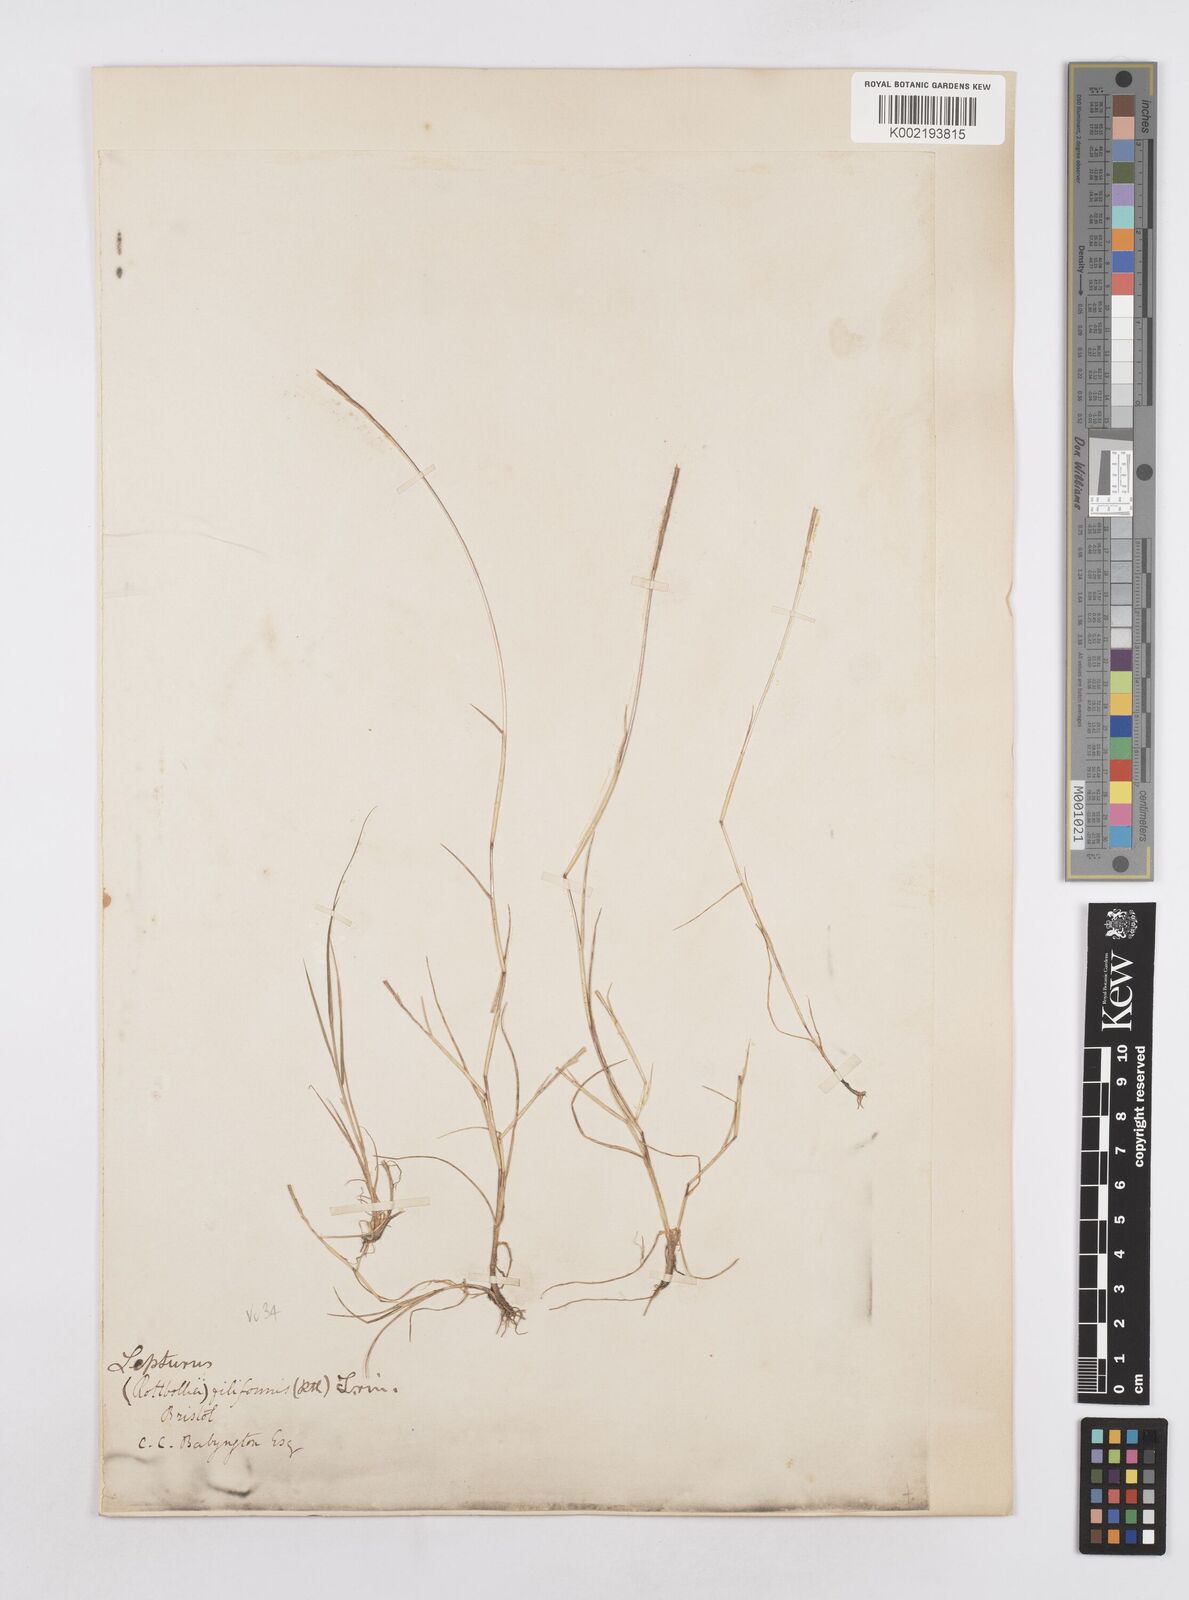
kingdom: Plantae
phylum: Tracheophyta
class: Liliopsida
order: Poales
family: Poaceae
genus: Parapholis
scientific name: Parapholis strigosa
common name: Hard-grass
